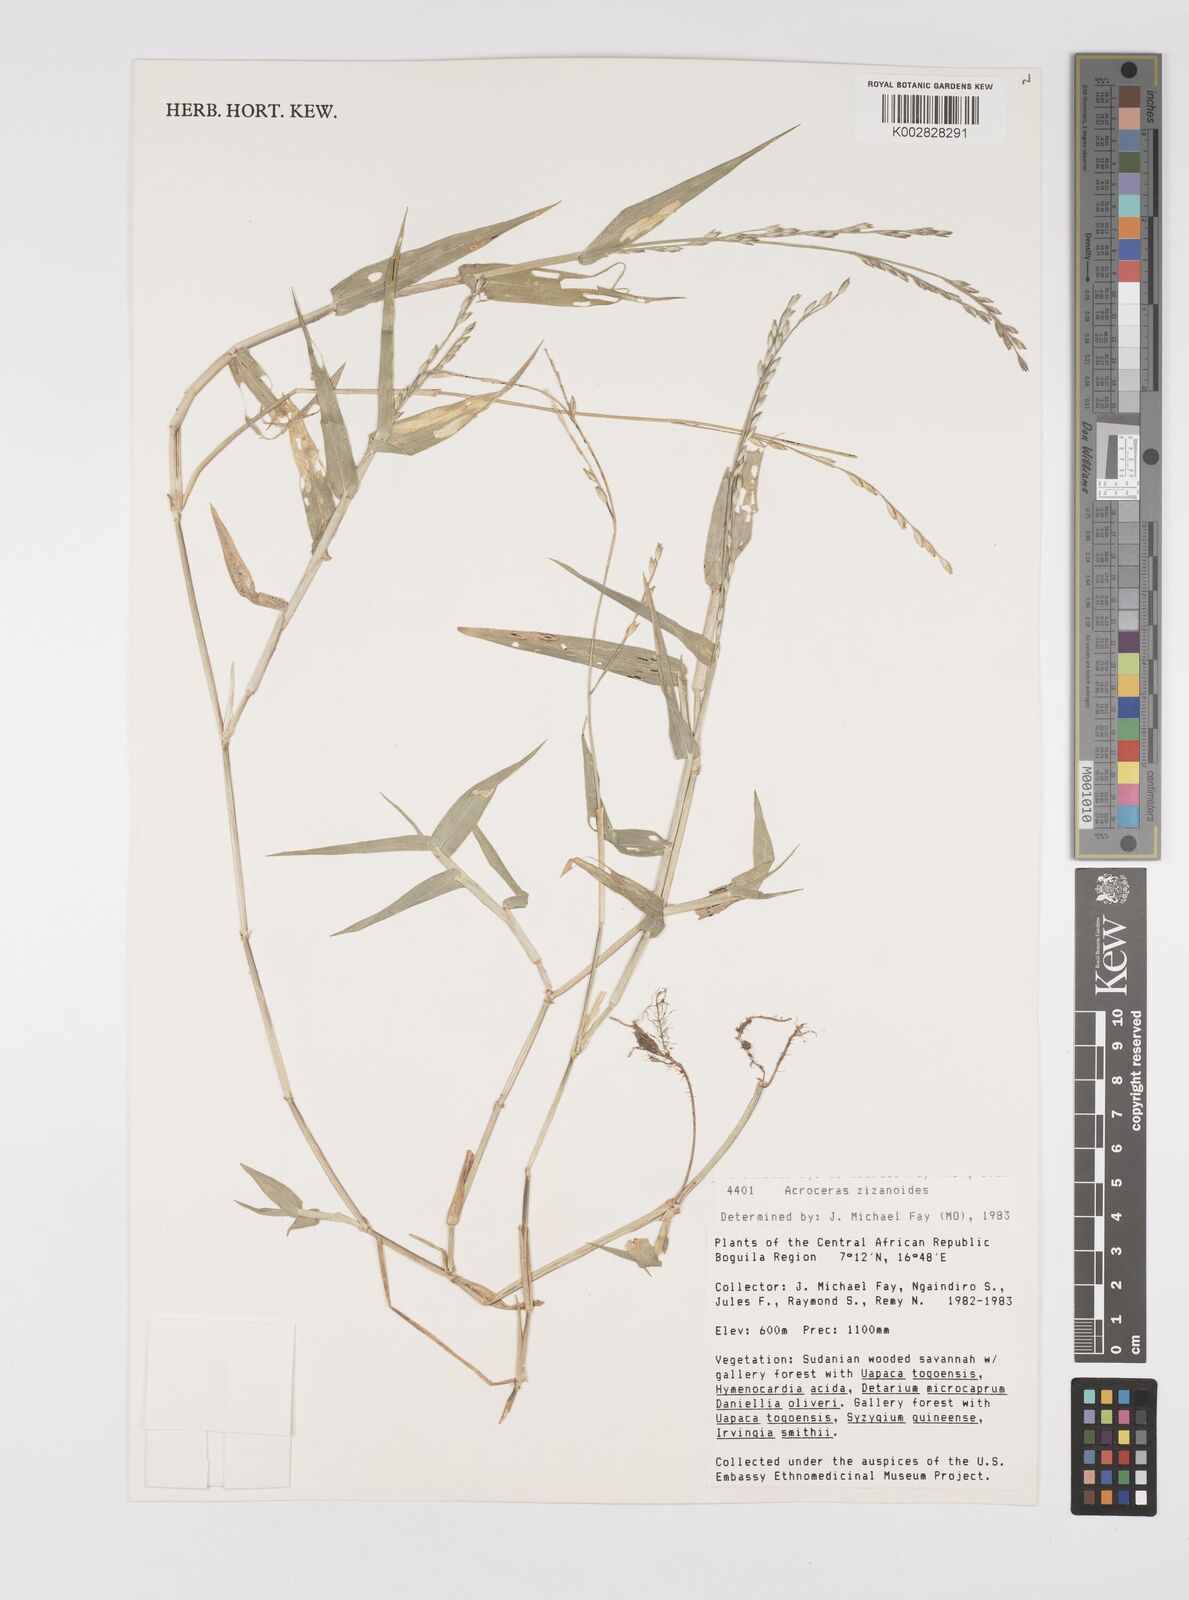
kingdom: Plantae
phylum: Tracheophyta
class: Liliopsida
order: Poales
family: Poaceae
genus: Acroceras
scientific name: Acroceras zizanioides
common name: Oat grass
